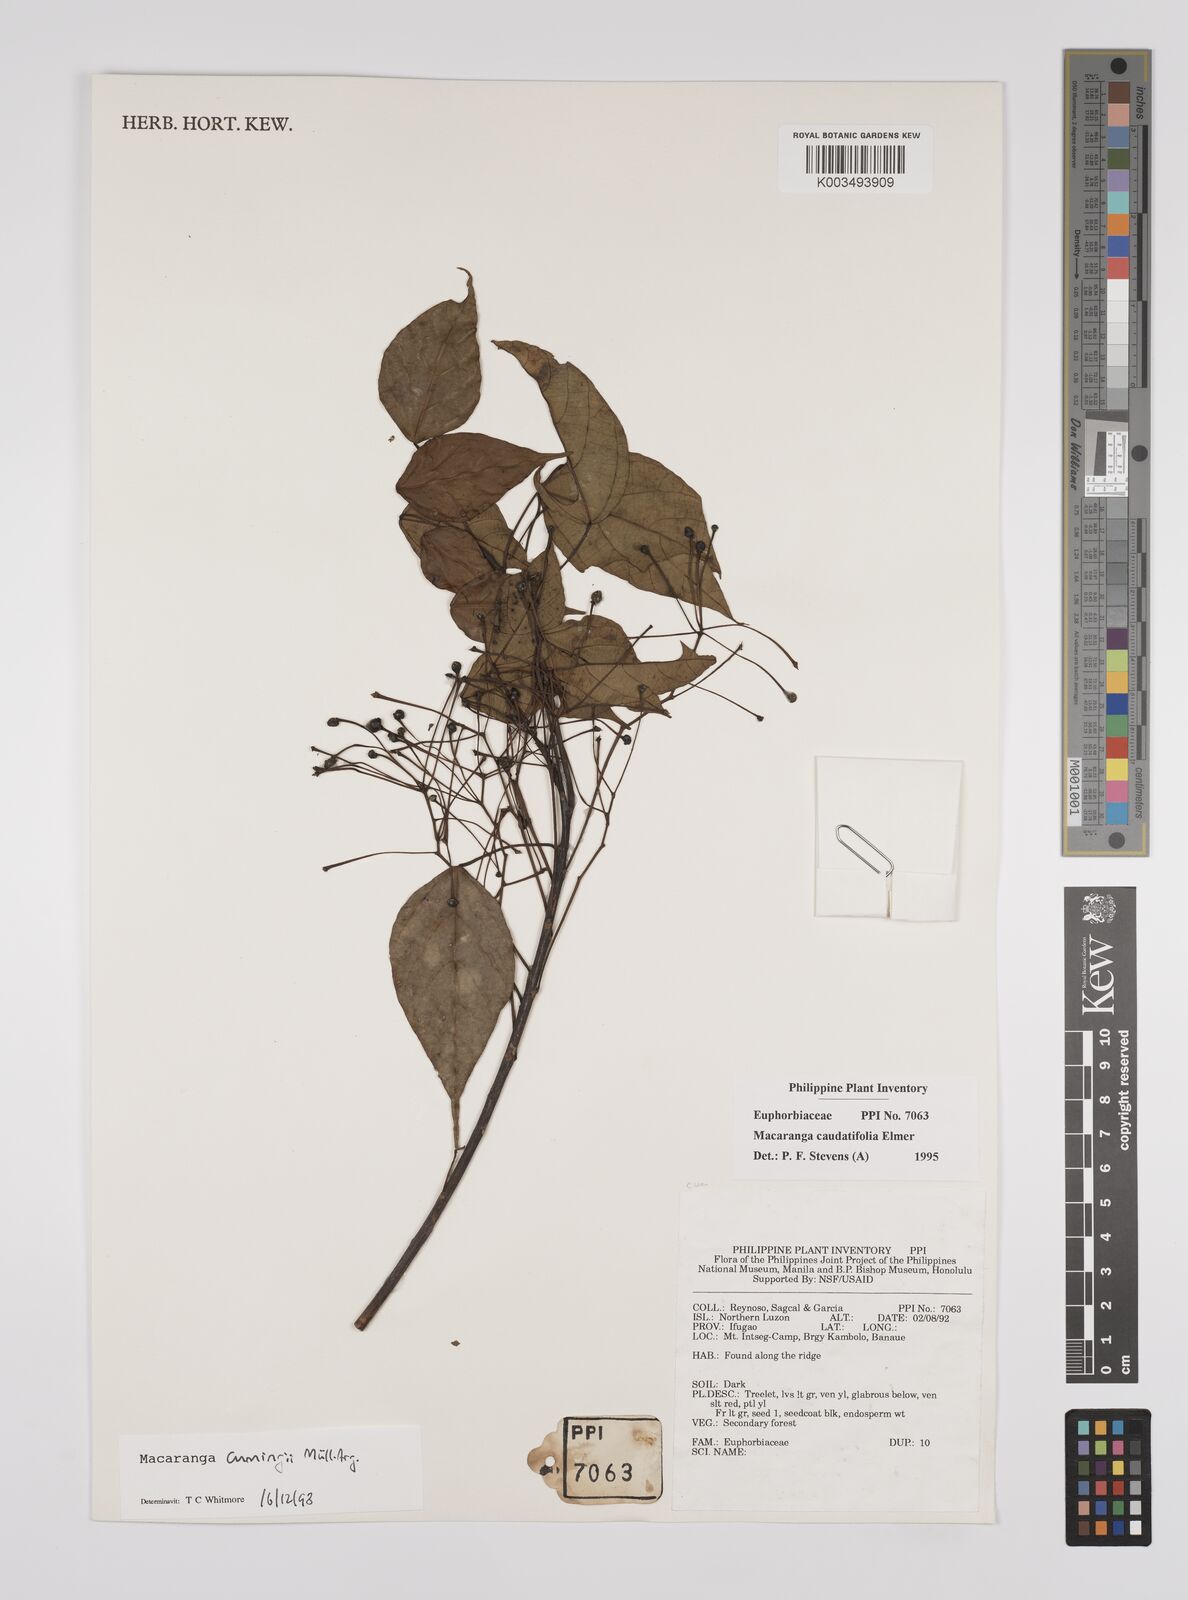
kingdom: Plantae
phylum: Tracheophyta
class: Magnoliopsida
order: Malpighiales
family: Euphorbiaceae
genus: Macaranga
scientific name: Macaranga cumingii
